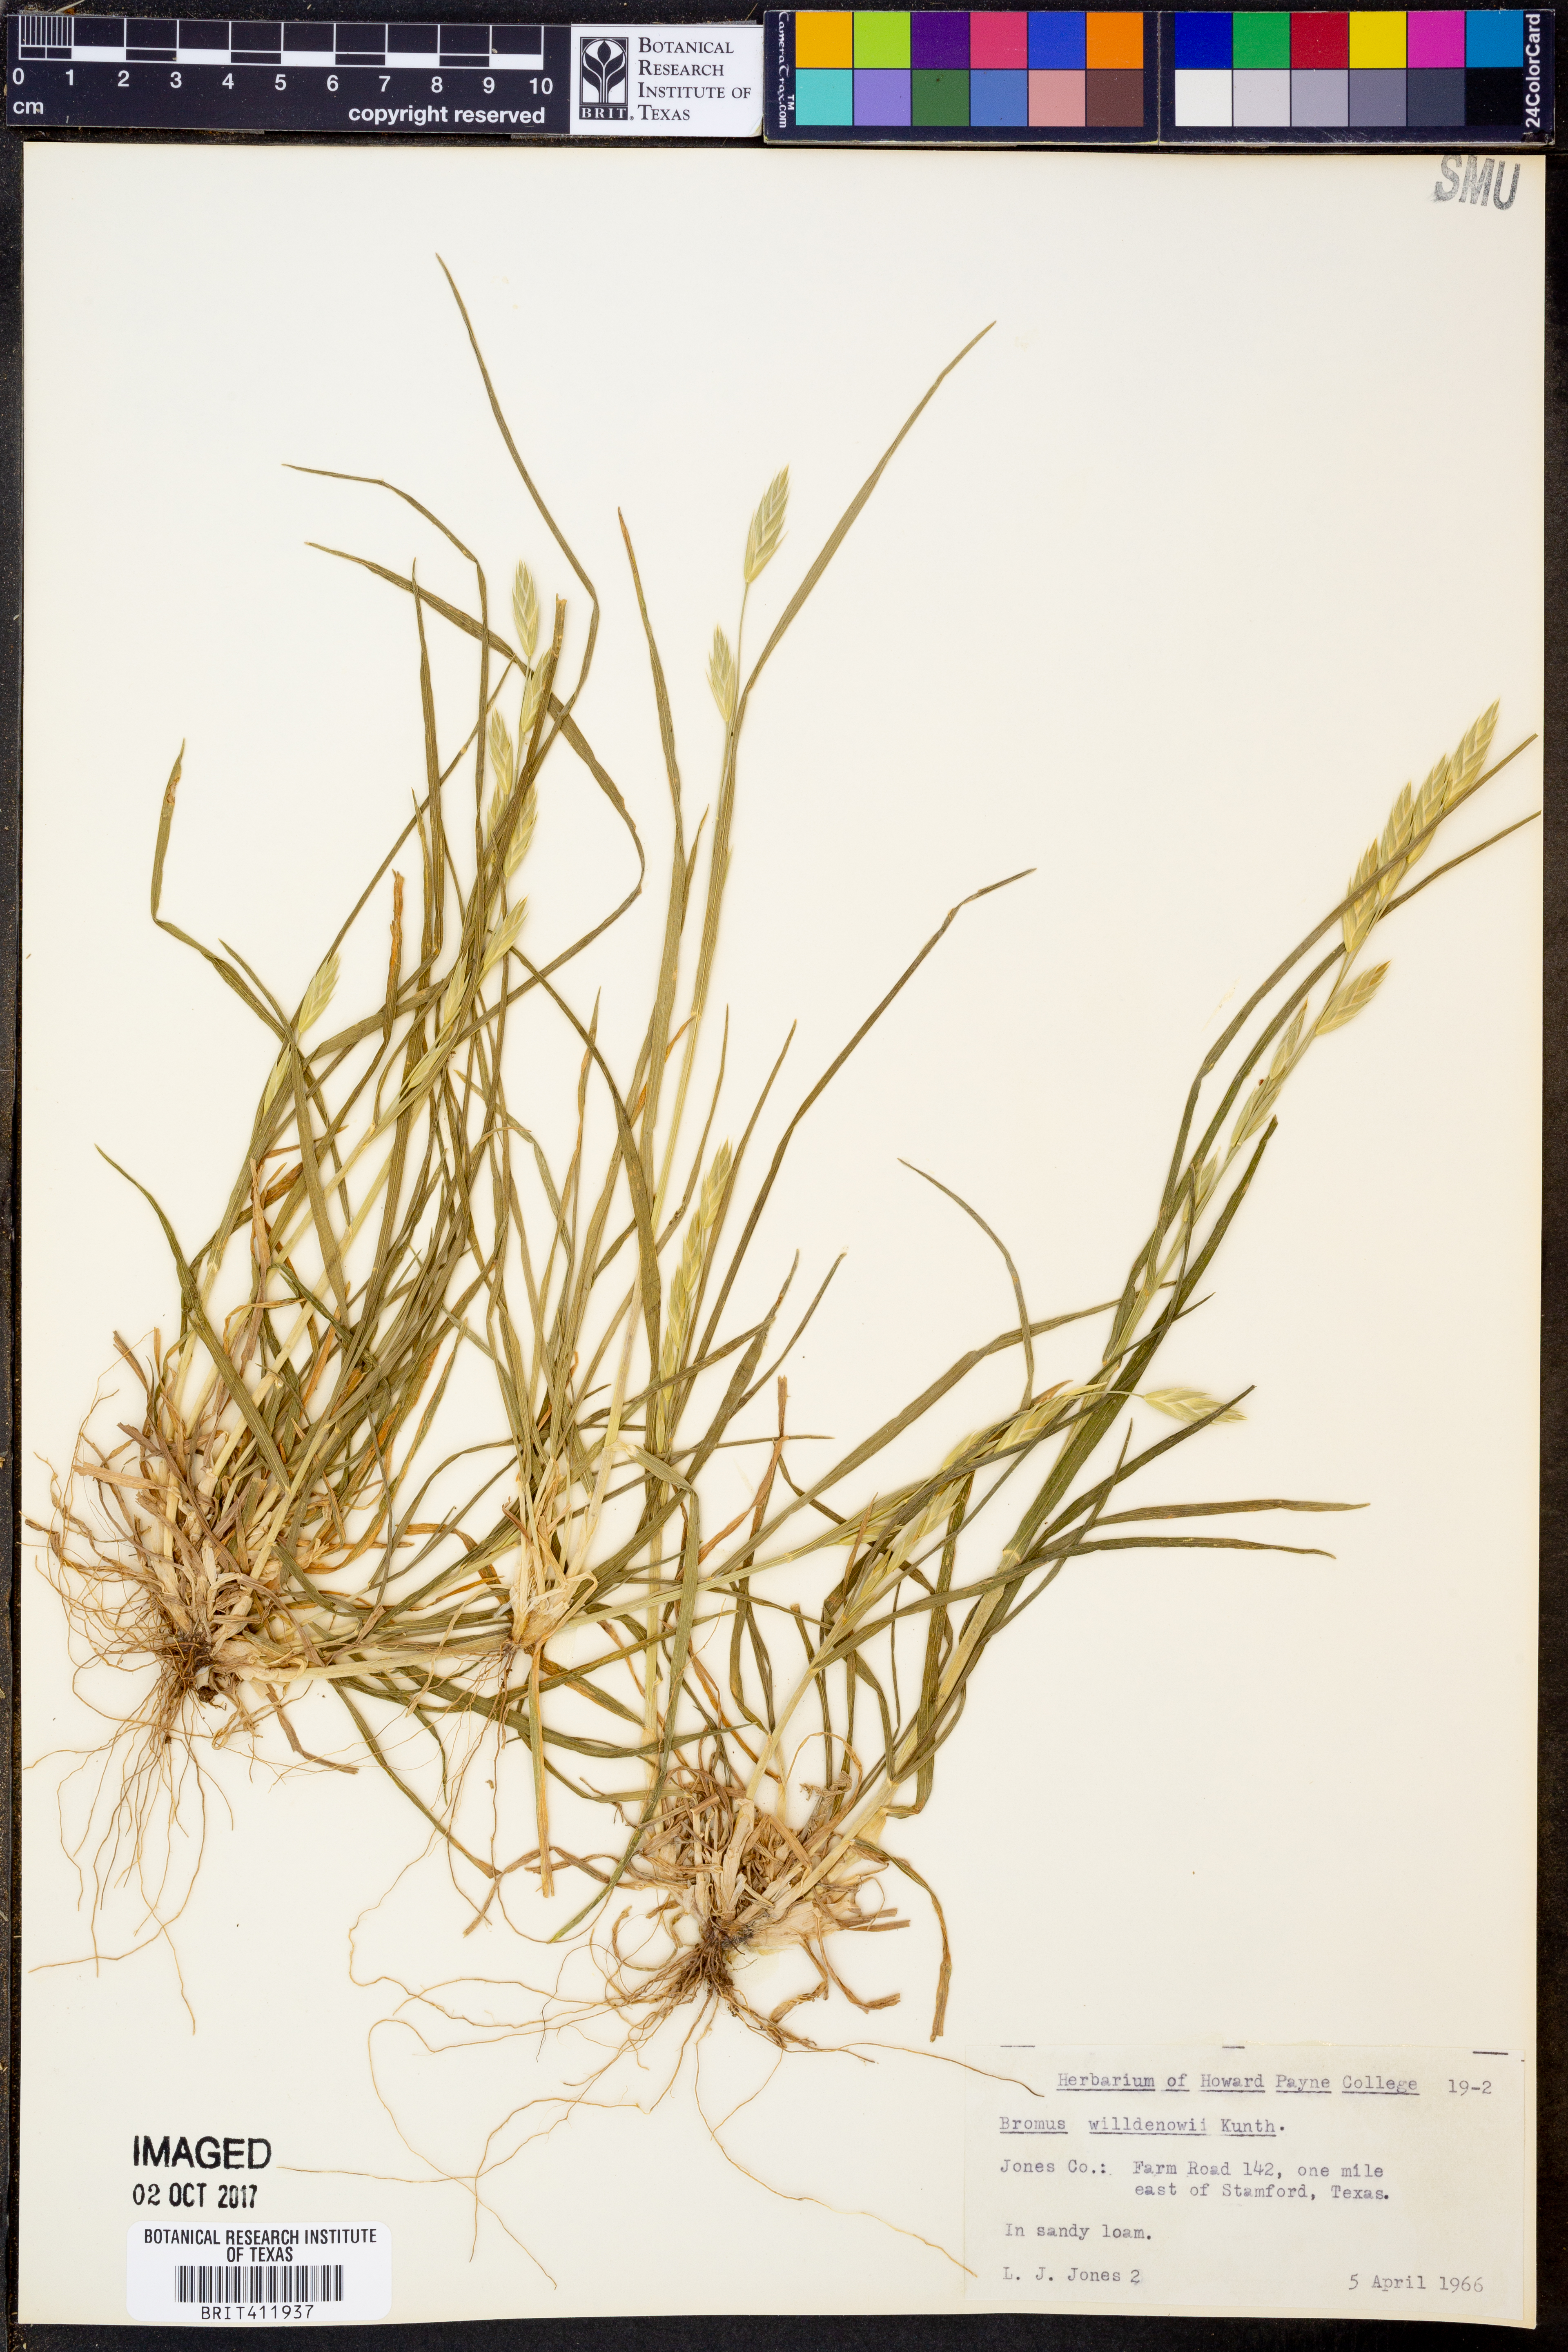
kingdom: Plantae
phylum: Tracheophyta
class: Liliopsida
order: Poales
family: Poaceae
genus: Bromus
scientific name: Bromus catharticus
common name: Rescuegrass
